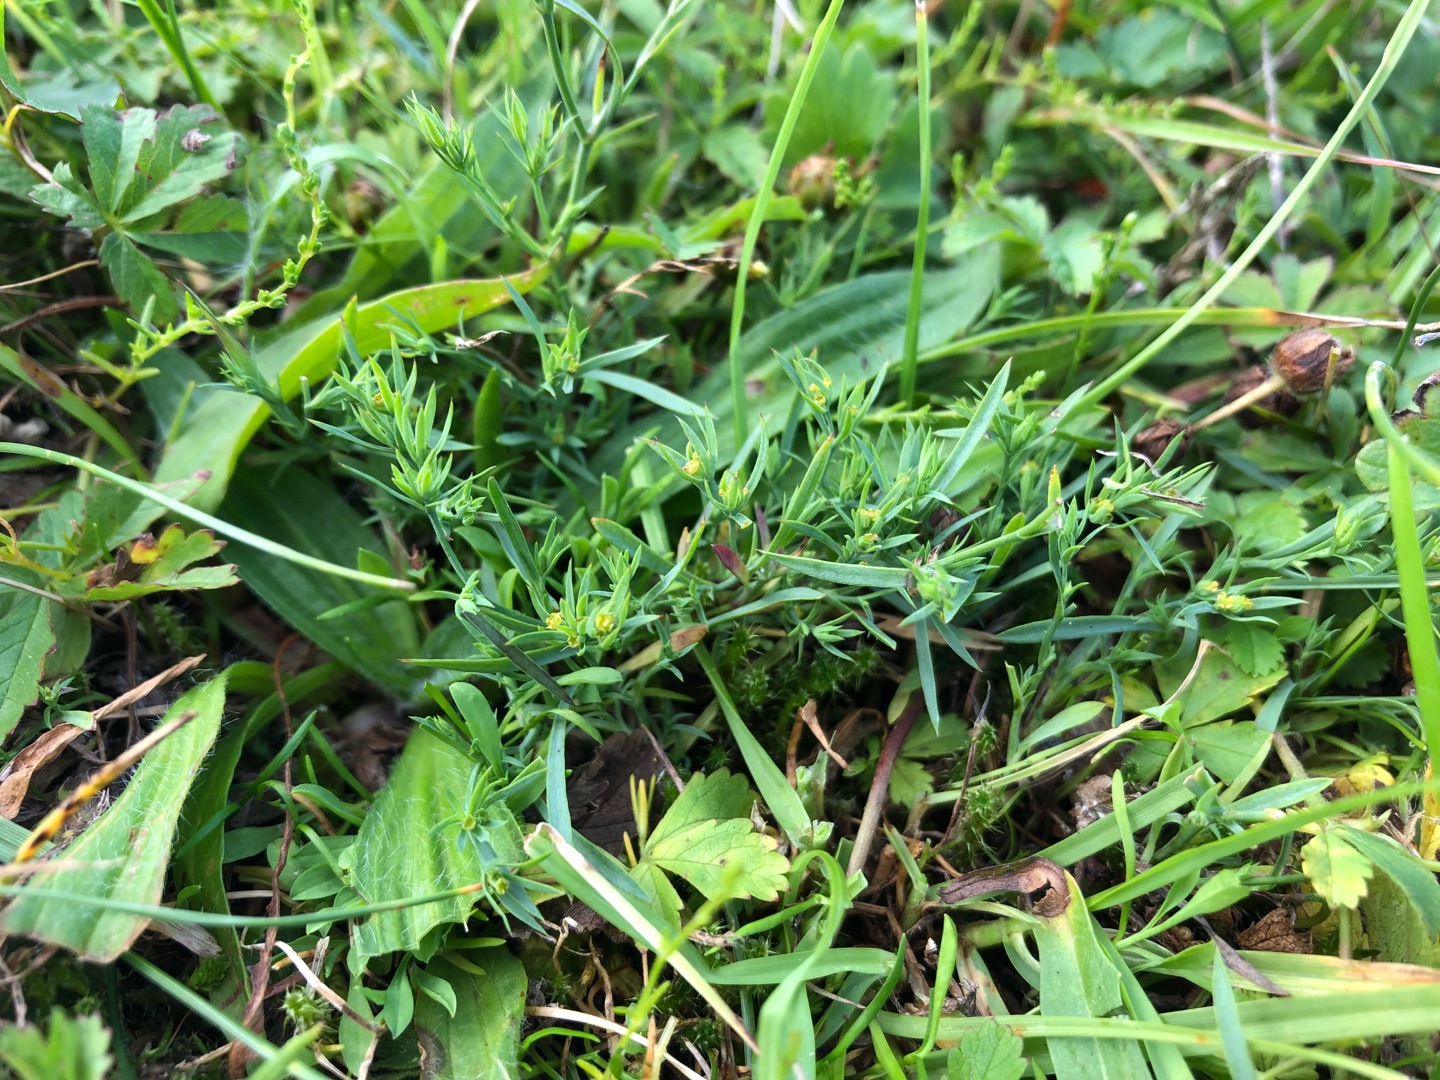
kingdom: Plantae
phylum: Tracheophyta
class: Magnoliopsida
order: Apiales
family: Apiaceae
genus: Bupleurum
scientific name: Bupleurum tenuissimum
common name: Smalbladet hareøre
